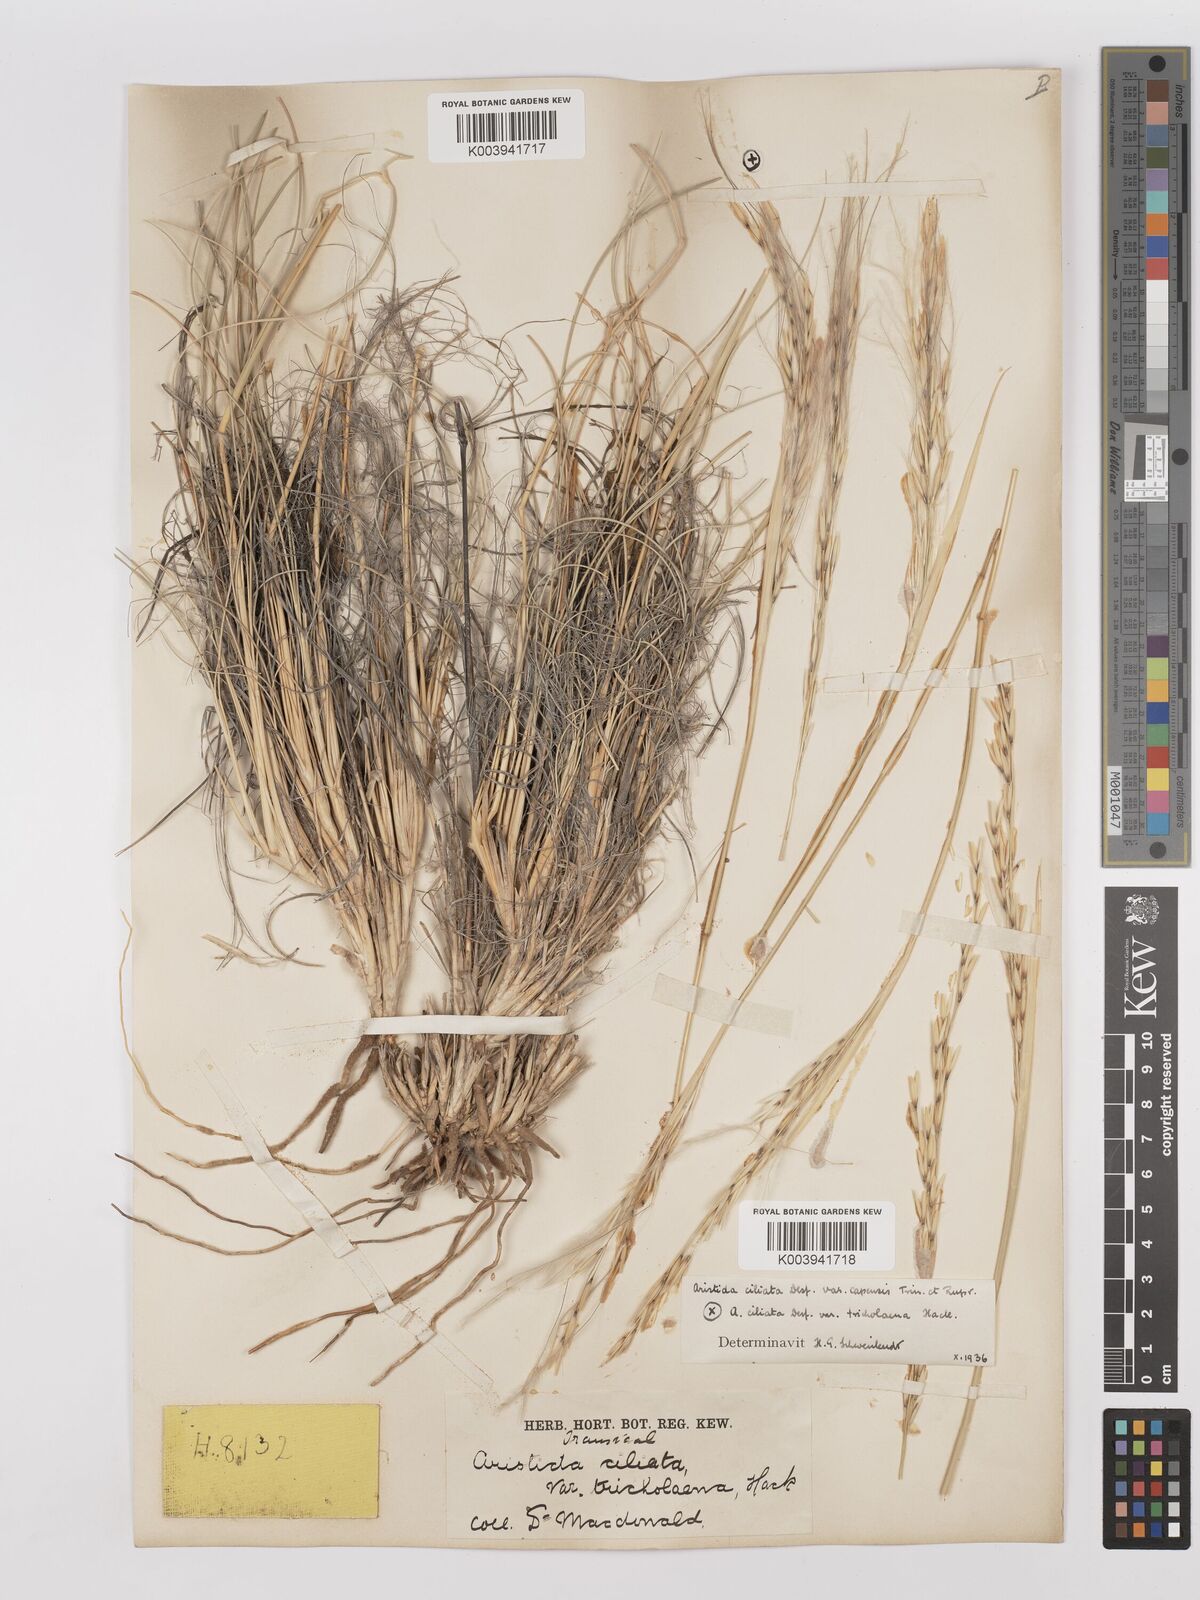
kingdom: Plantae
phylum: Tracheophyta
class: Liliopsida
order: Poales
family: Poaceae
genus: Stipagrostis
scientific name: Stipagrostis ciliata
